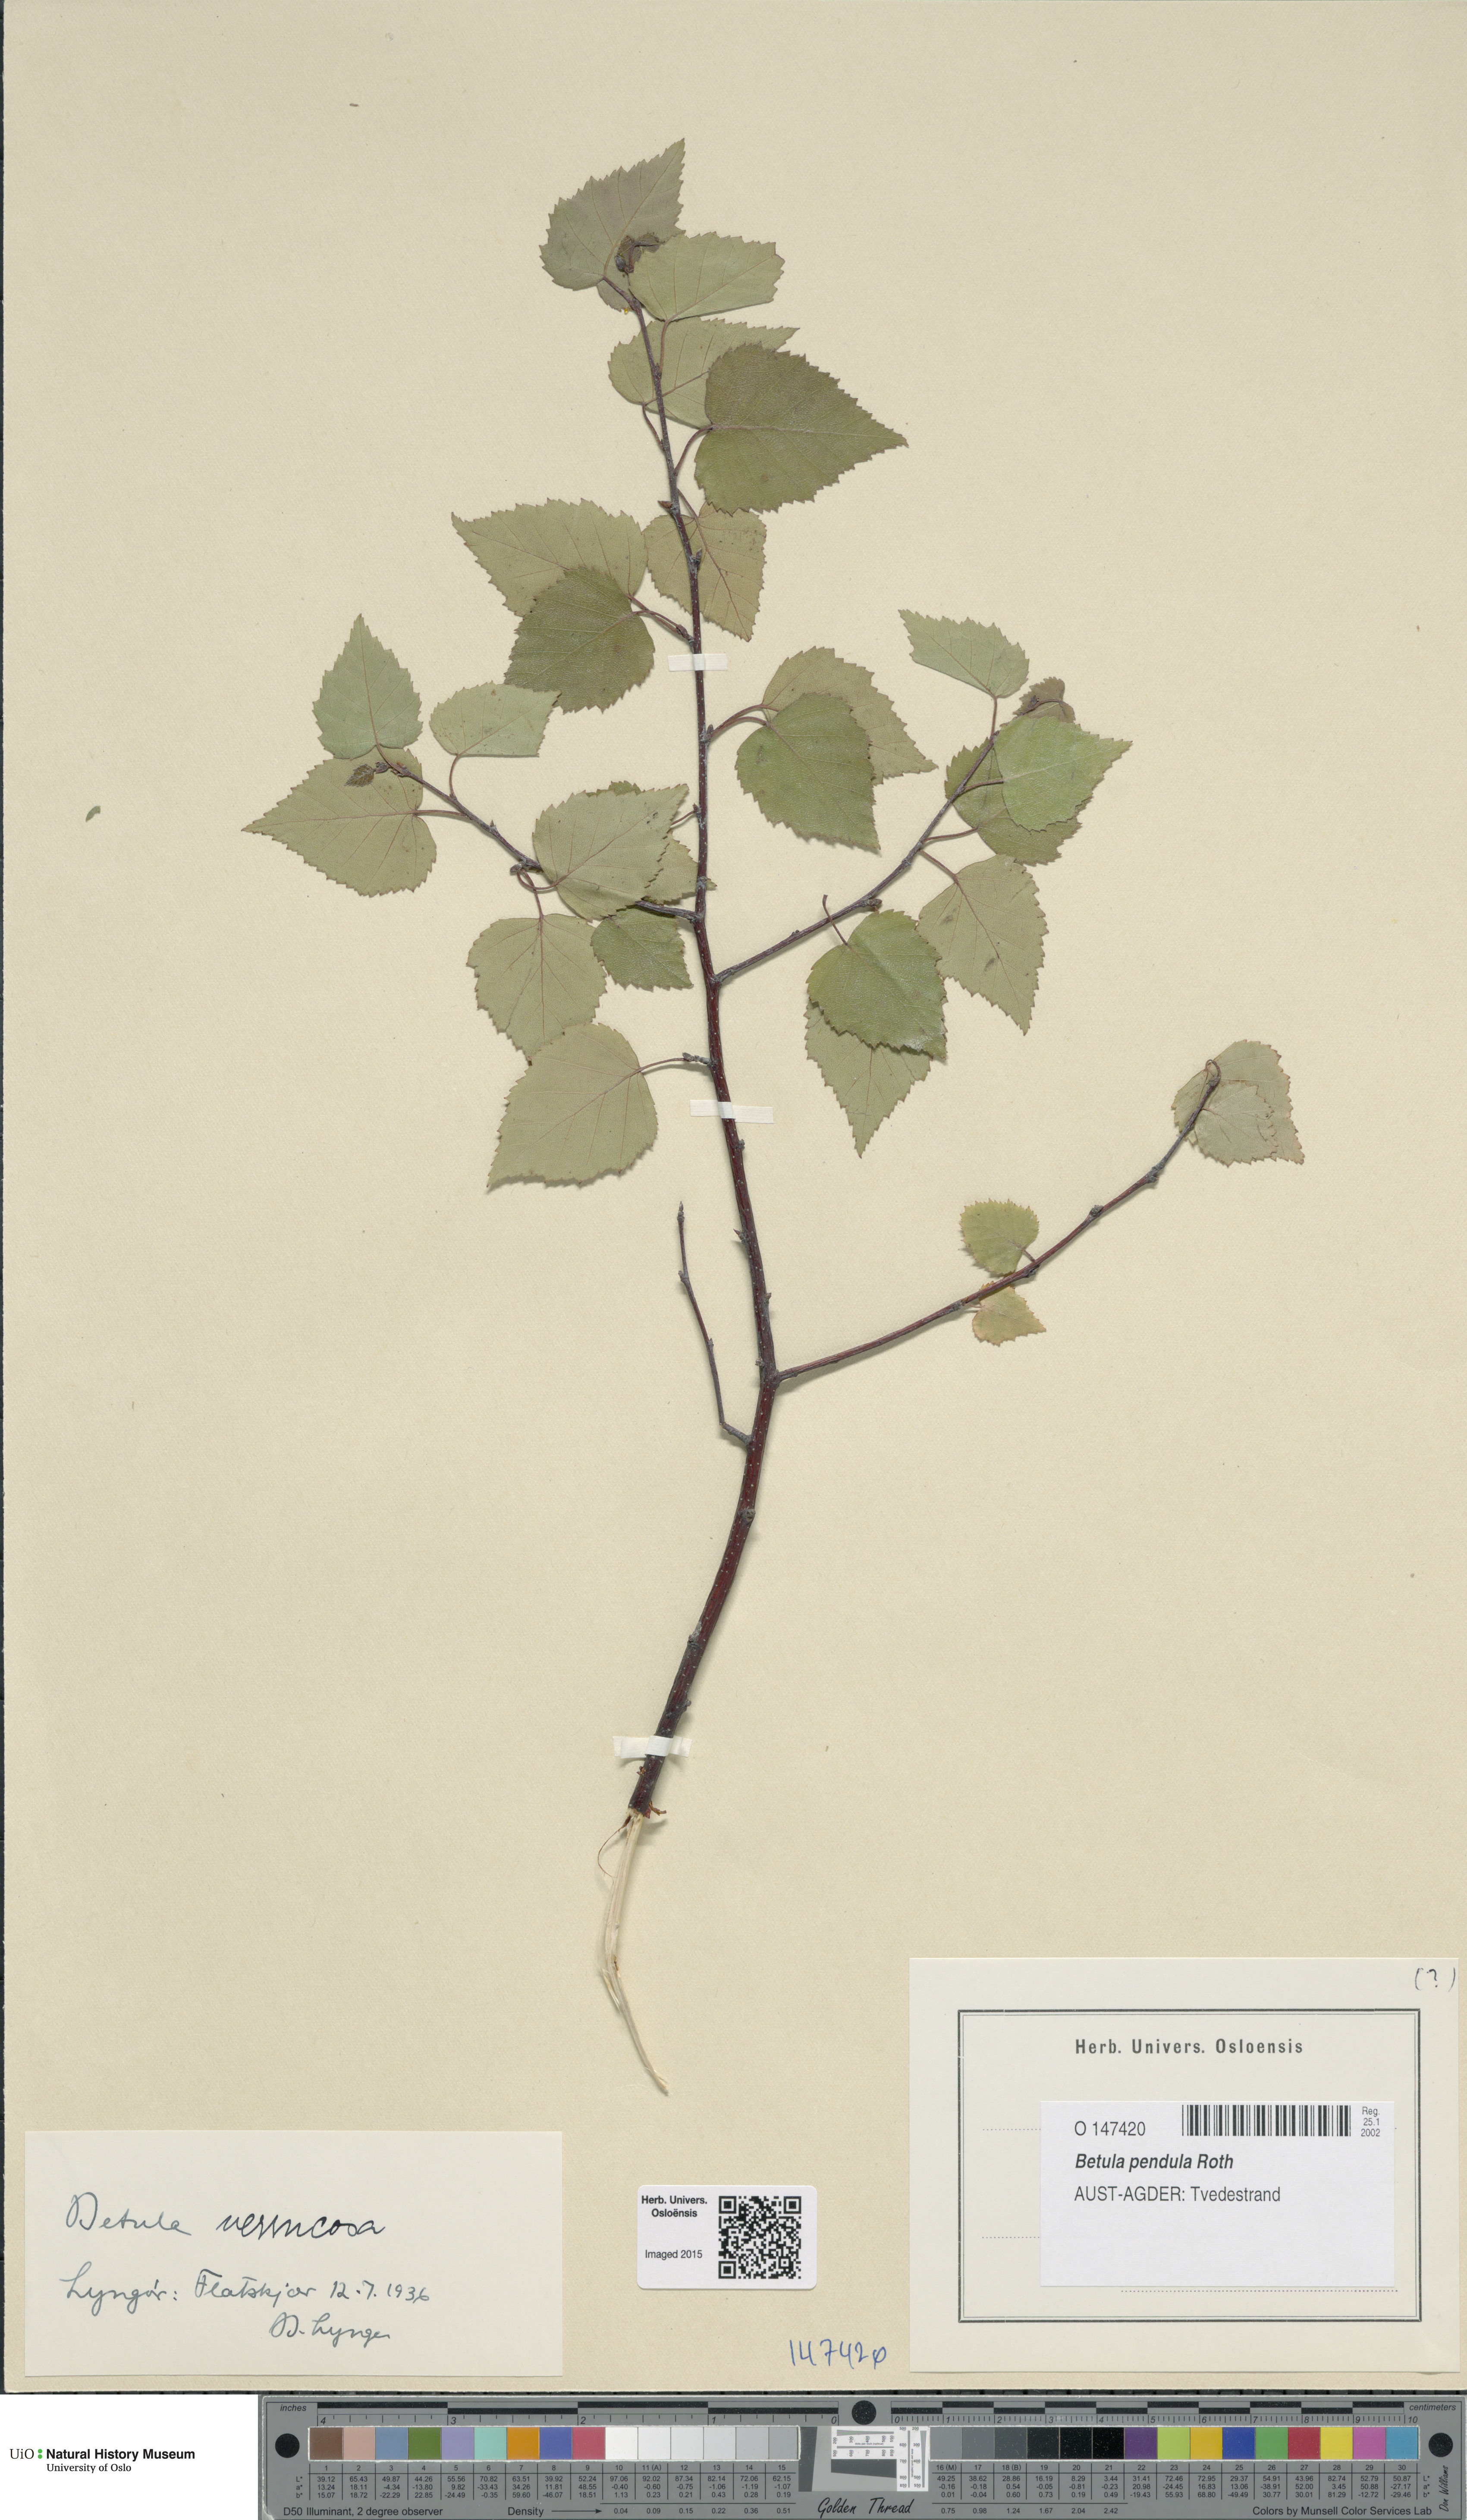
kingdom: Plantae
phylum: Tracheophyta
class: Magnoliopsida
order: Fagales
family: Betulaceae
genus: Betula
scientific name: Betula pendula
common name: Silver birch
